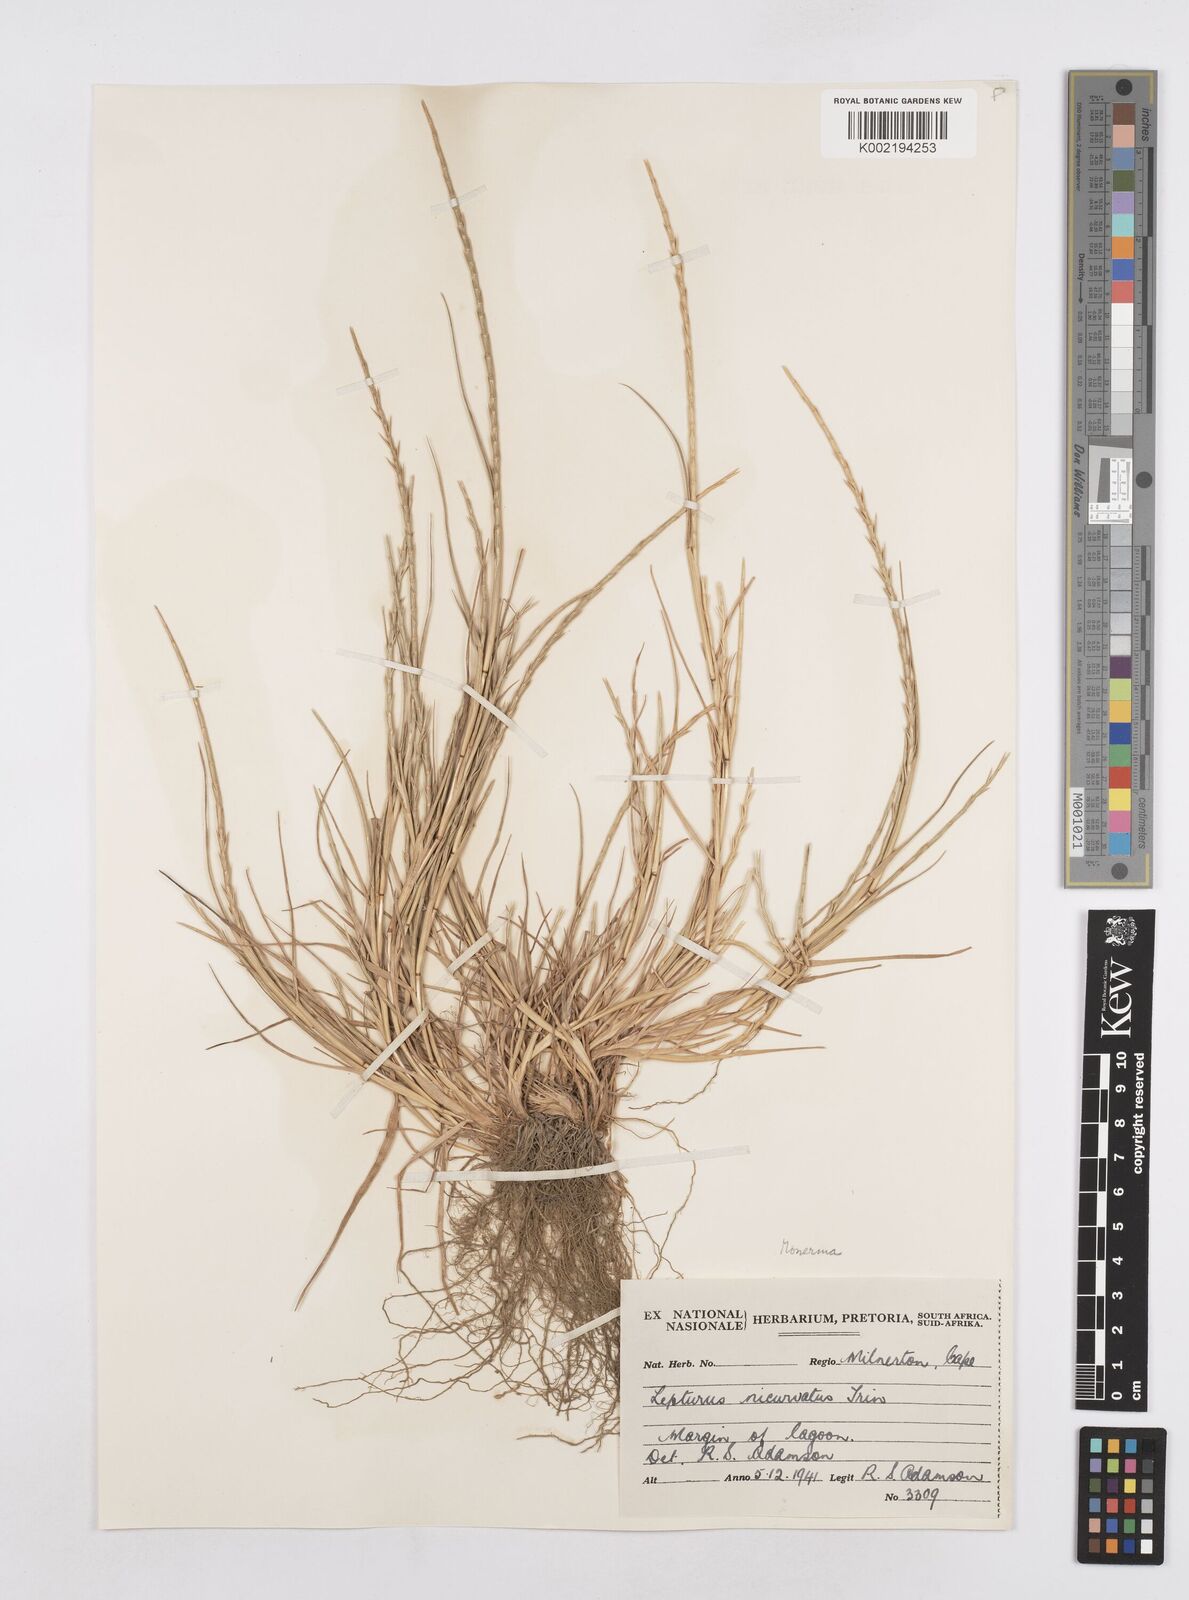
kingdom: Plantae
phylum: Tracheophyta
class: Liliopsida
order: Poales
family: Poaceae
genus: Parapholis
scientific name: Parapholis cylindrica
